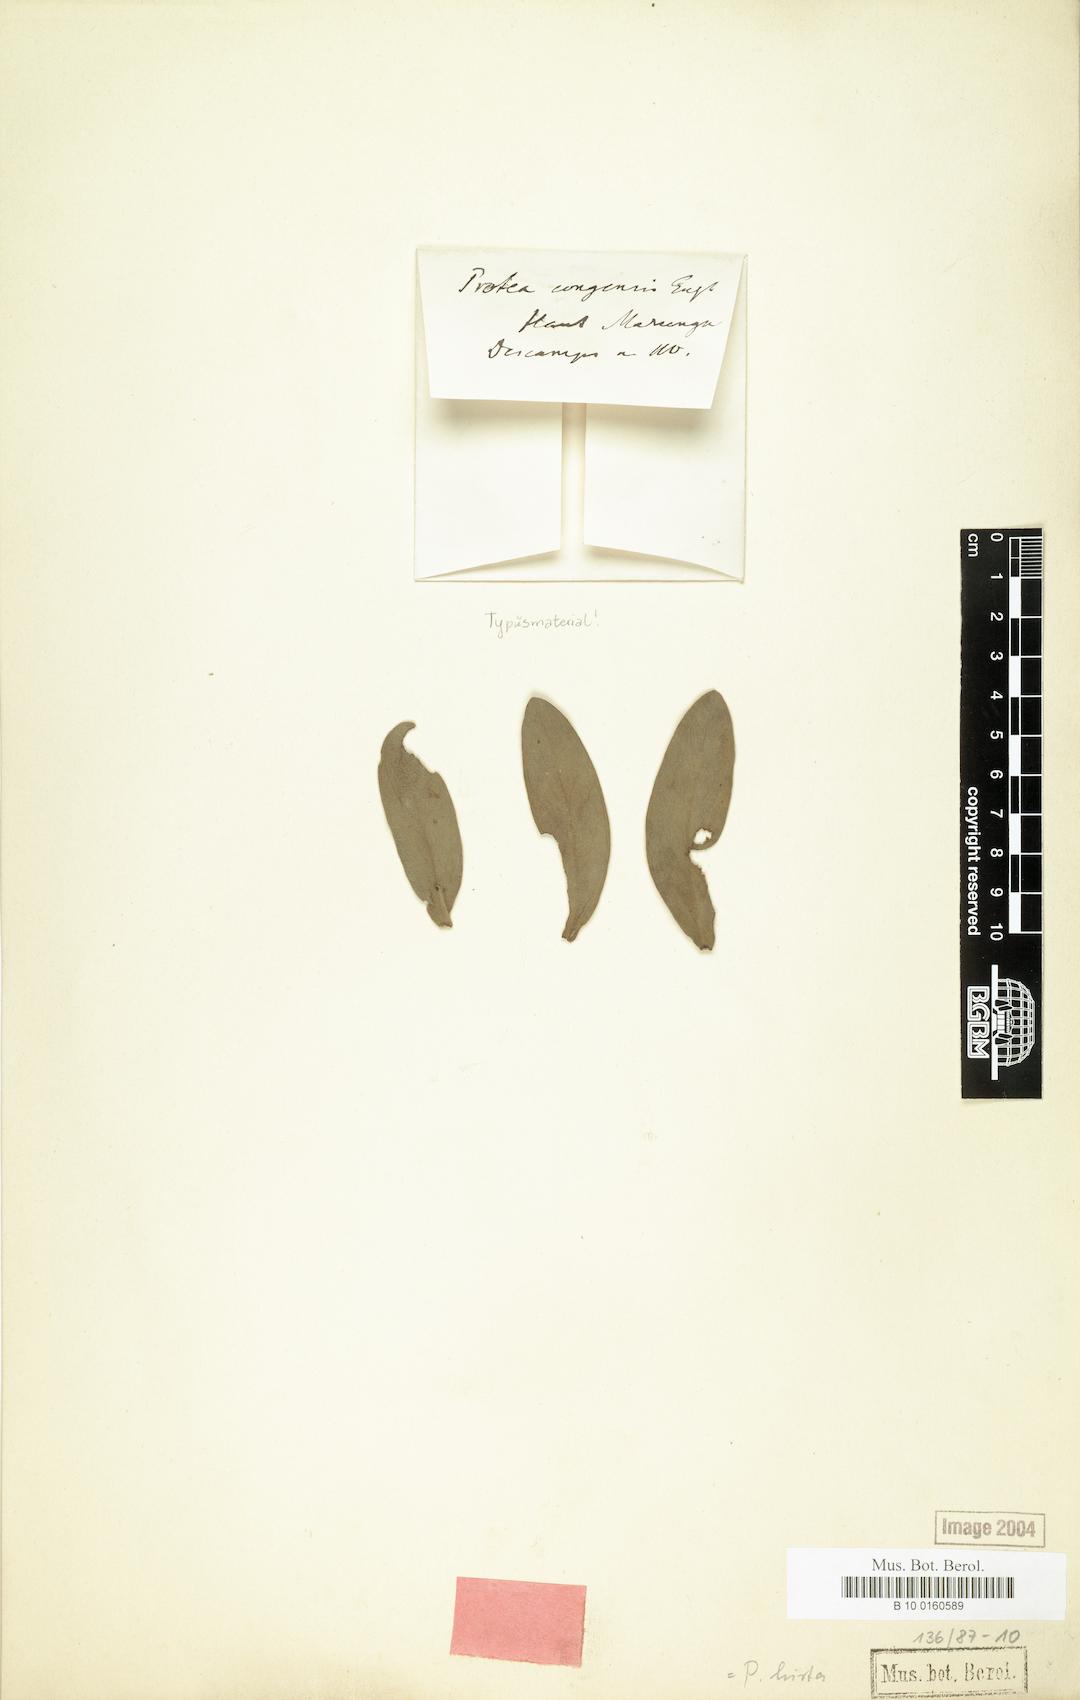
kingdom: Plantae
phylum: Tracheophyta
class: Magnoliopsida
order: Proteales
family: Proteaceae
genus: Protea
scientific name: Protea welwitschii
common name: Cluster-head protea
